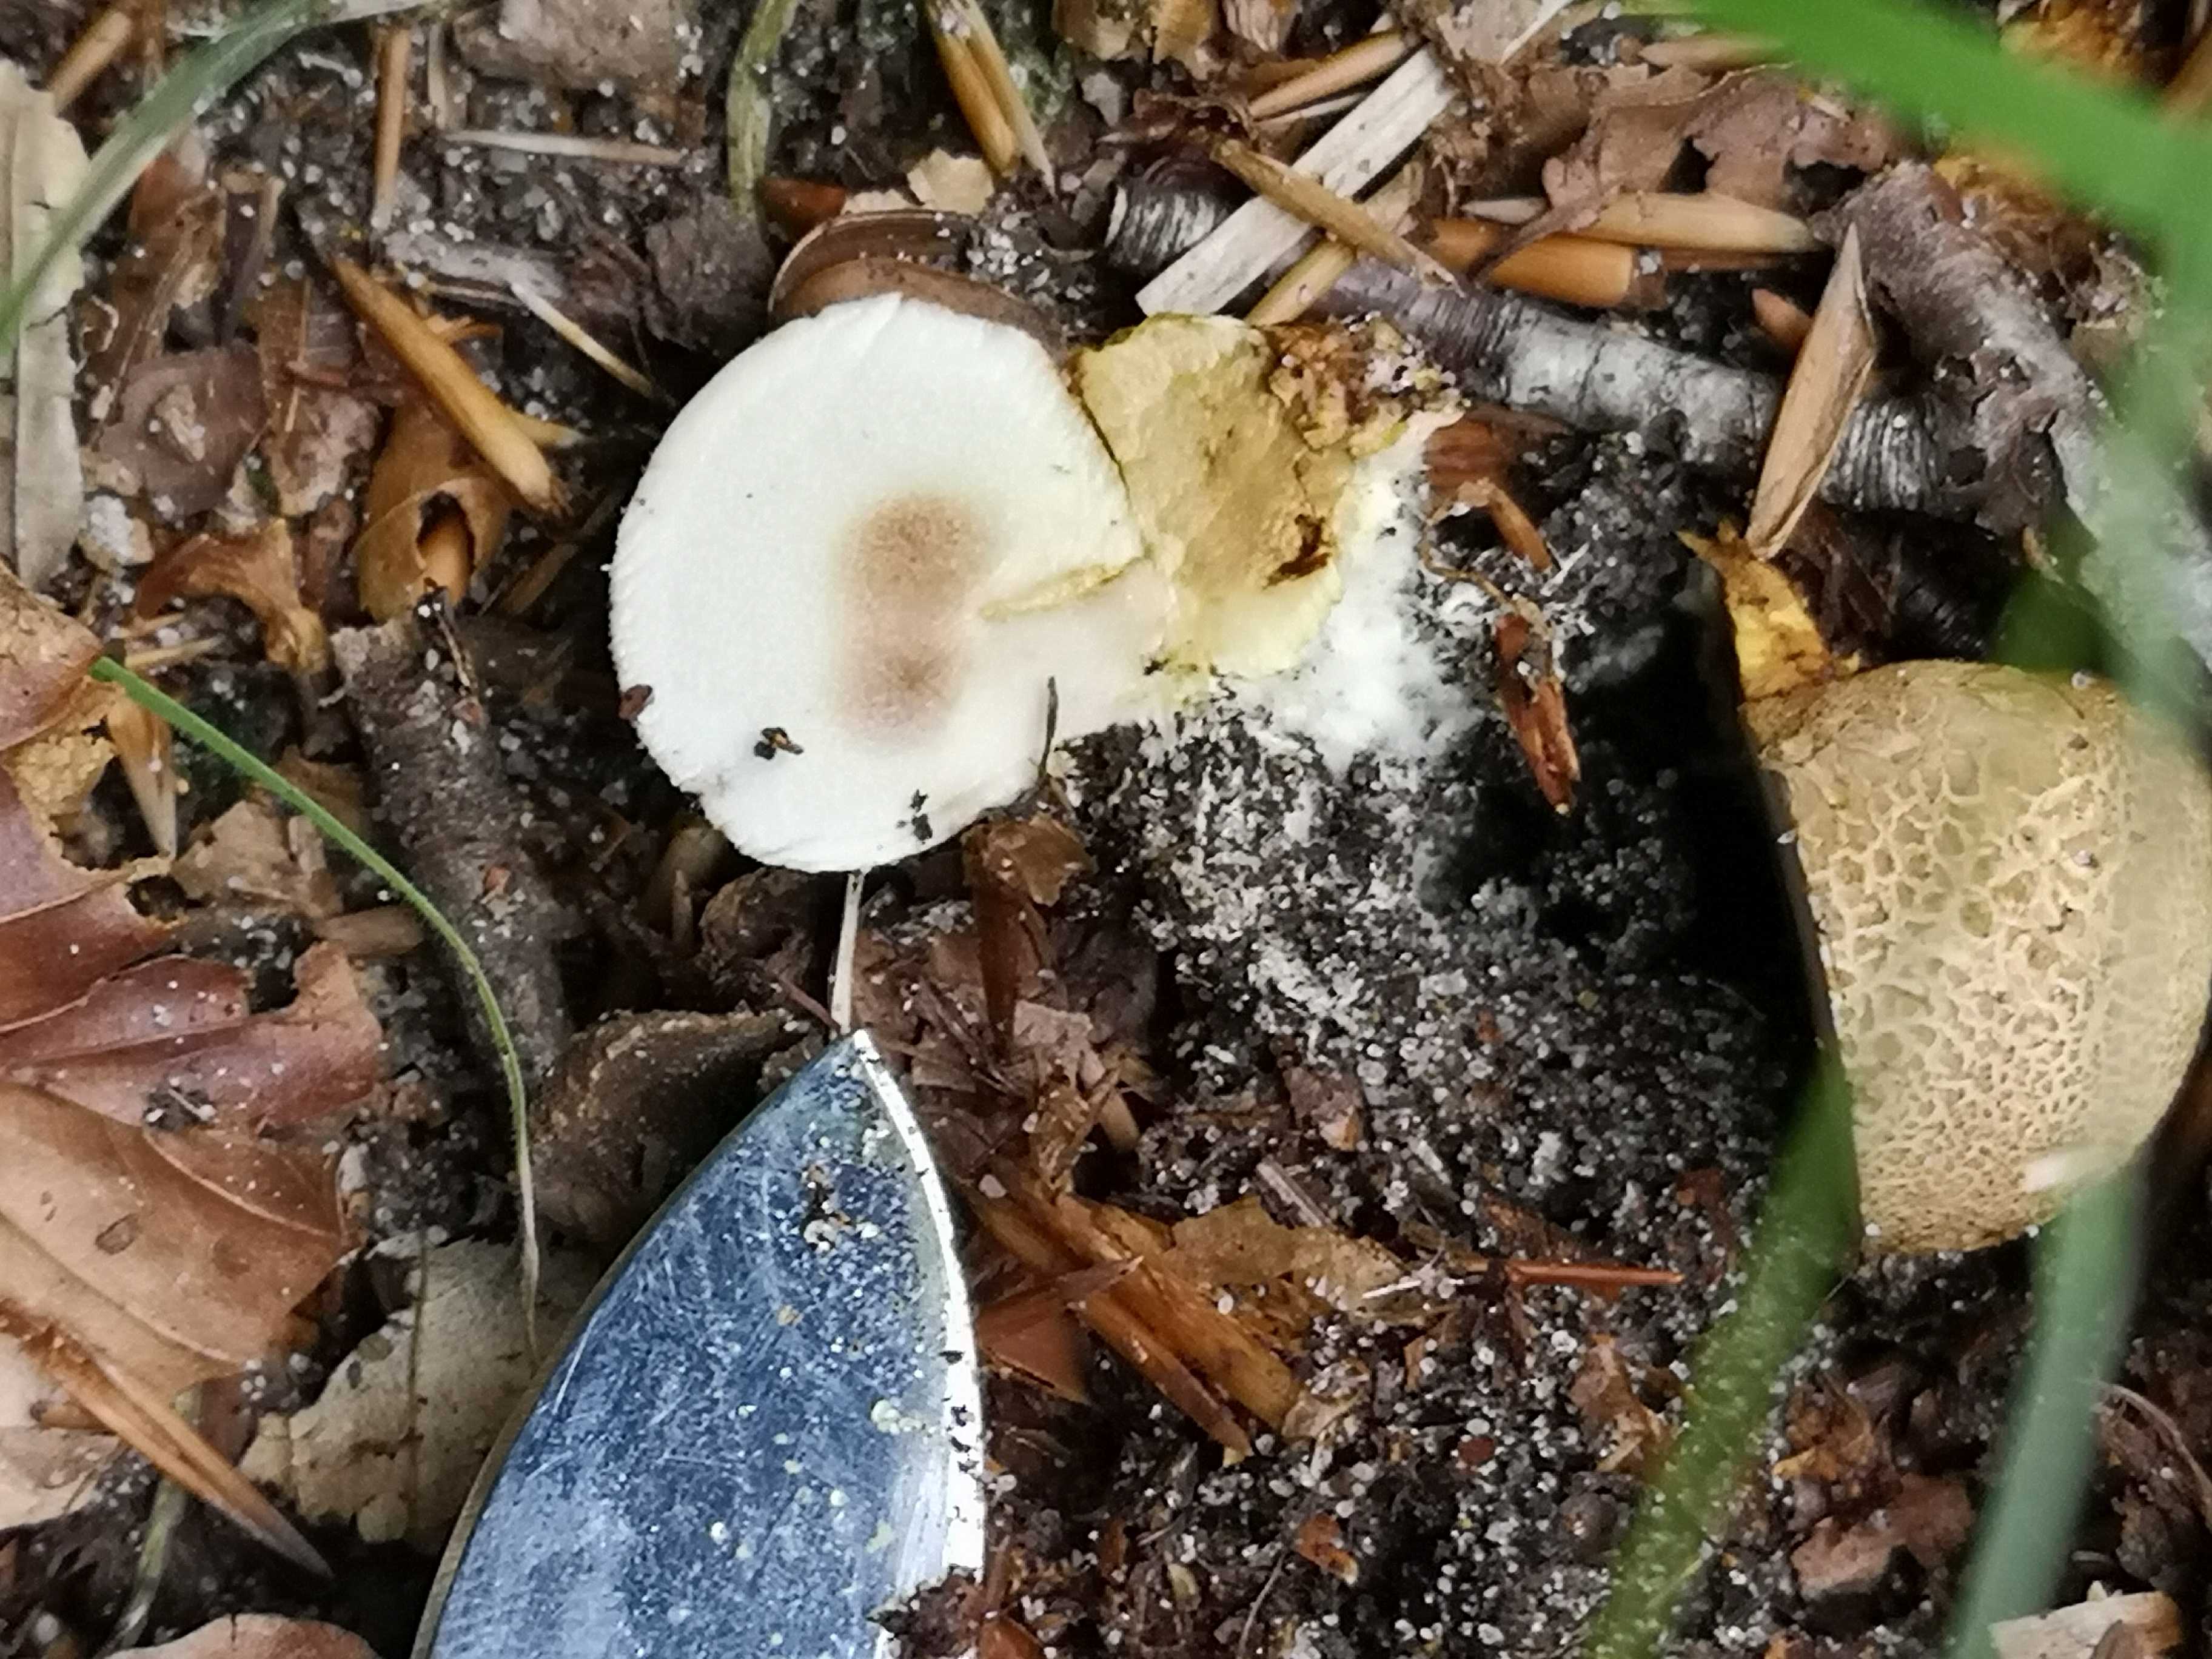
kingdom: Fungi
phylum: Basidiomycota
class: Agaricomycetes
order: Boletales
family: Sclerodermataceae
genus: Scleroderma
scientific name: Scleroderma citrinum
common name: almindelig bruskbold
